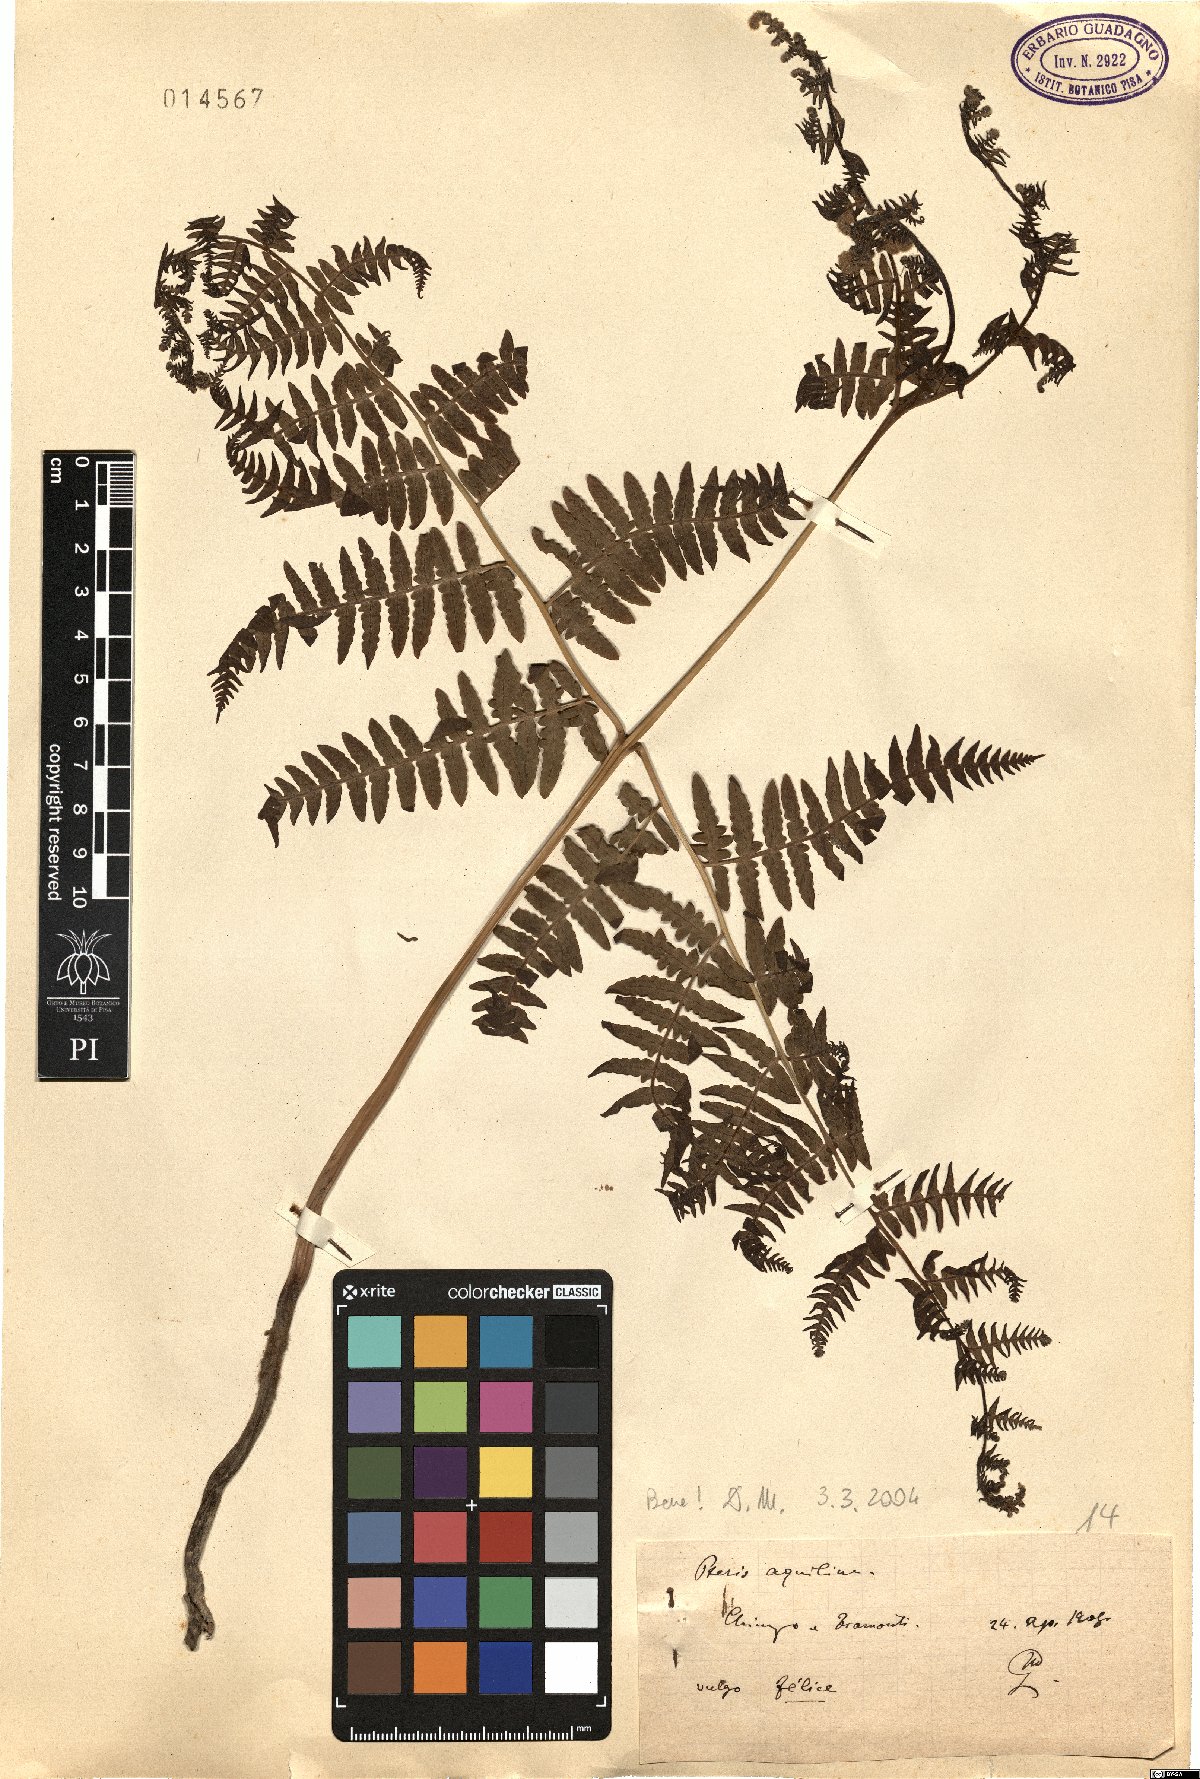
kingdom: Plantae
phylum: Tracheophyta
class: Polypodiopsida
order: Polypodiales
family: Dennstaedtiaceae
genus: Pteridium
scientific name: Pteridium aquilinum
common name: Bracken
